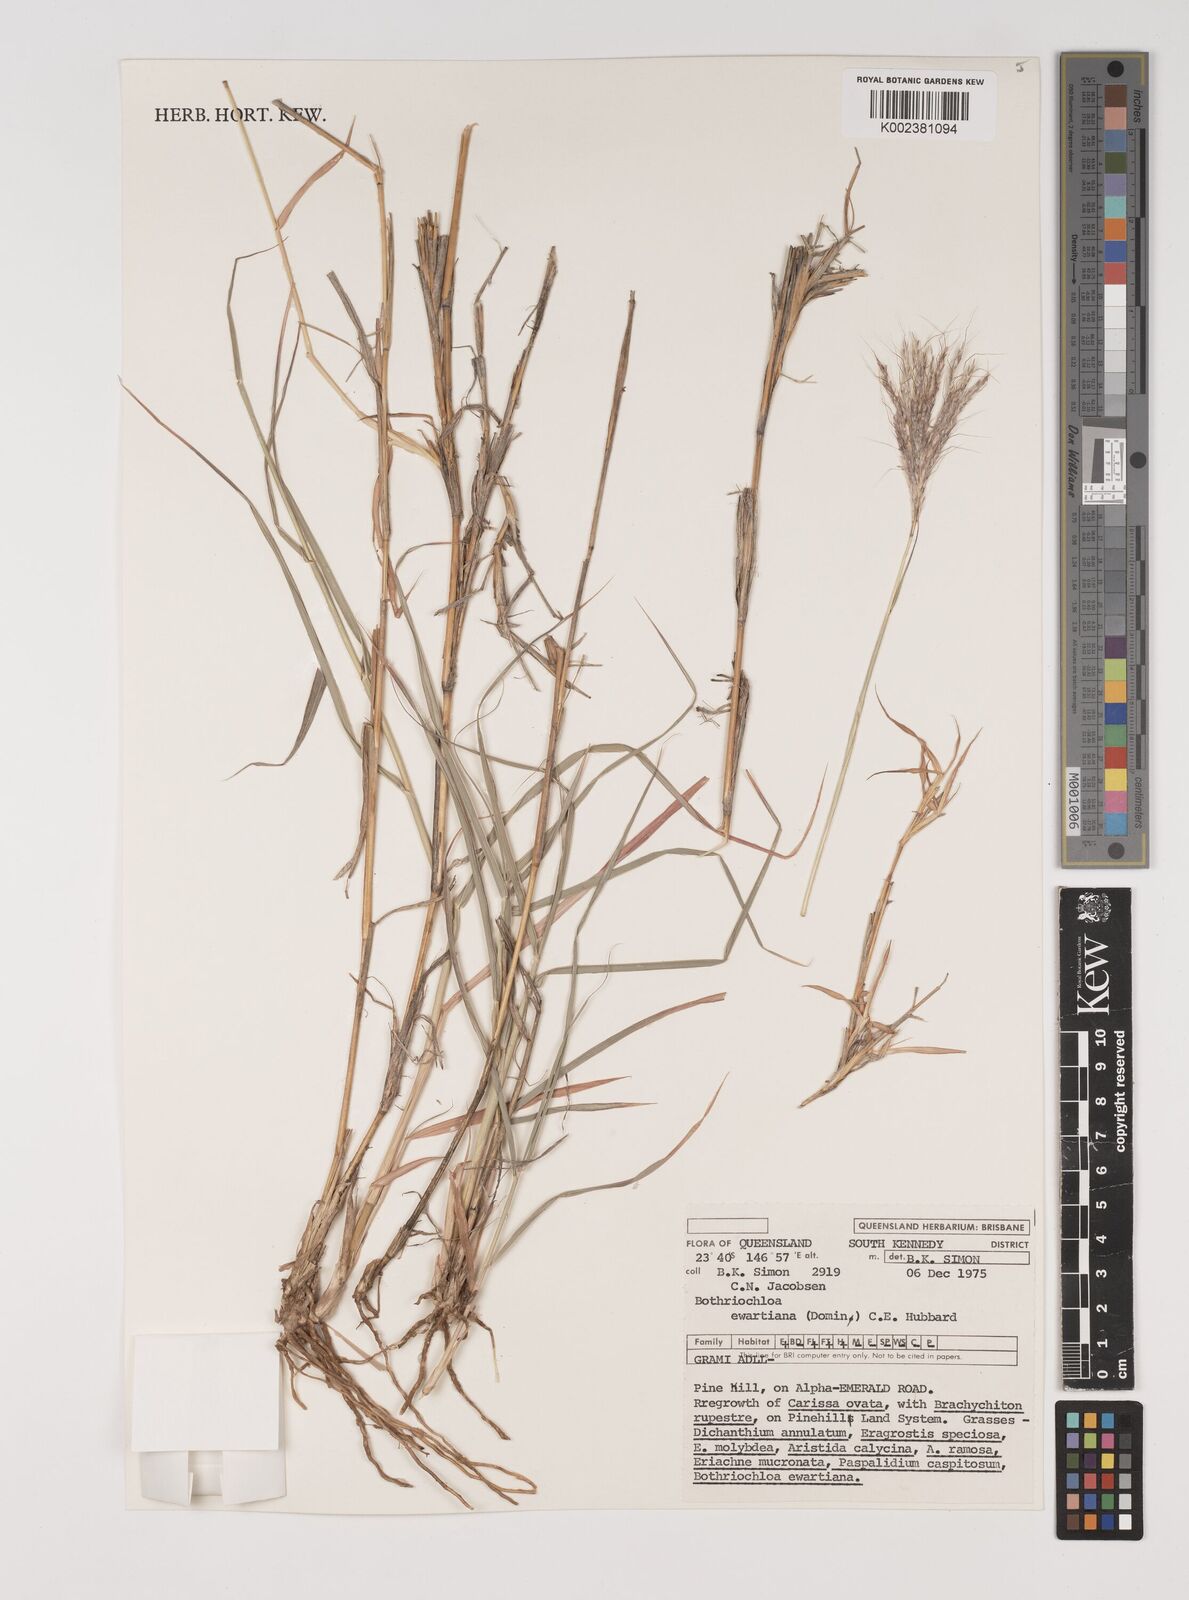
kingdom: Plantae
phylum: Tracheophyta
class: Liliopsida
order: Poales
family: Poaceae
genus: Bothriochloa
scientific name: Bothriochloa ewartiana
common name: Desert-bluegrass
